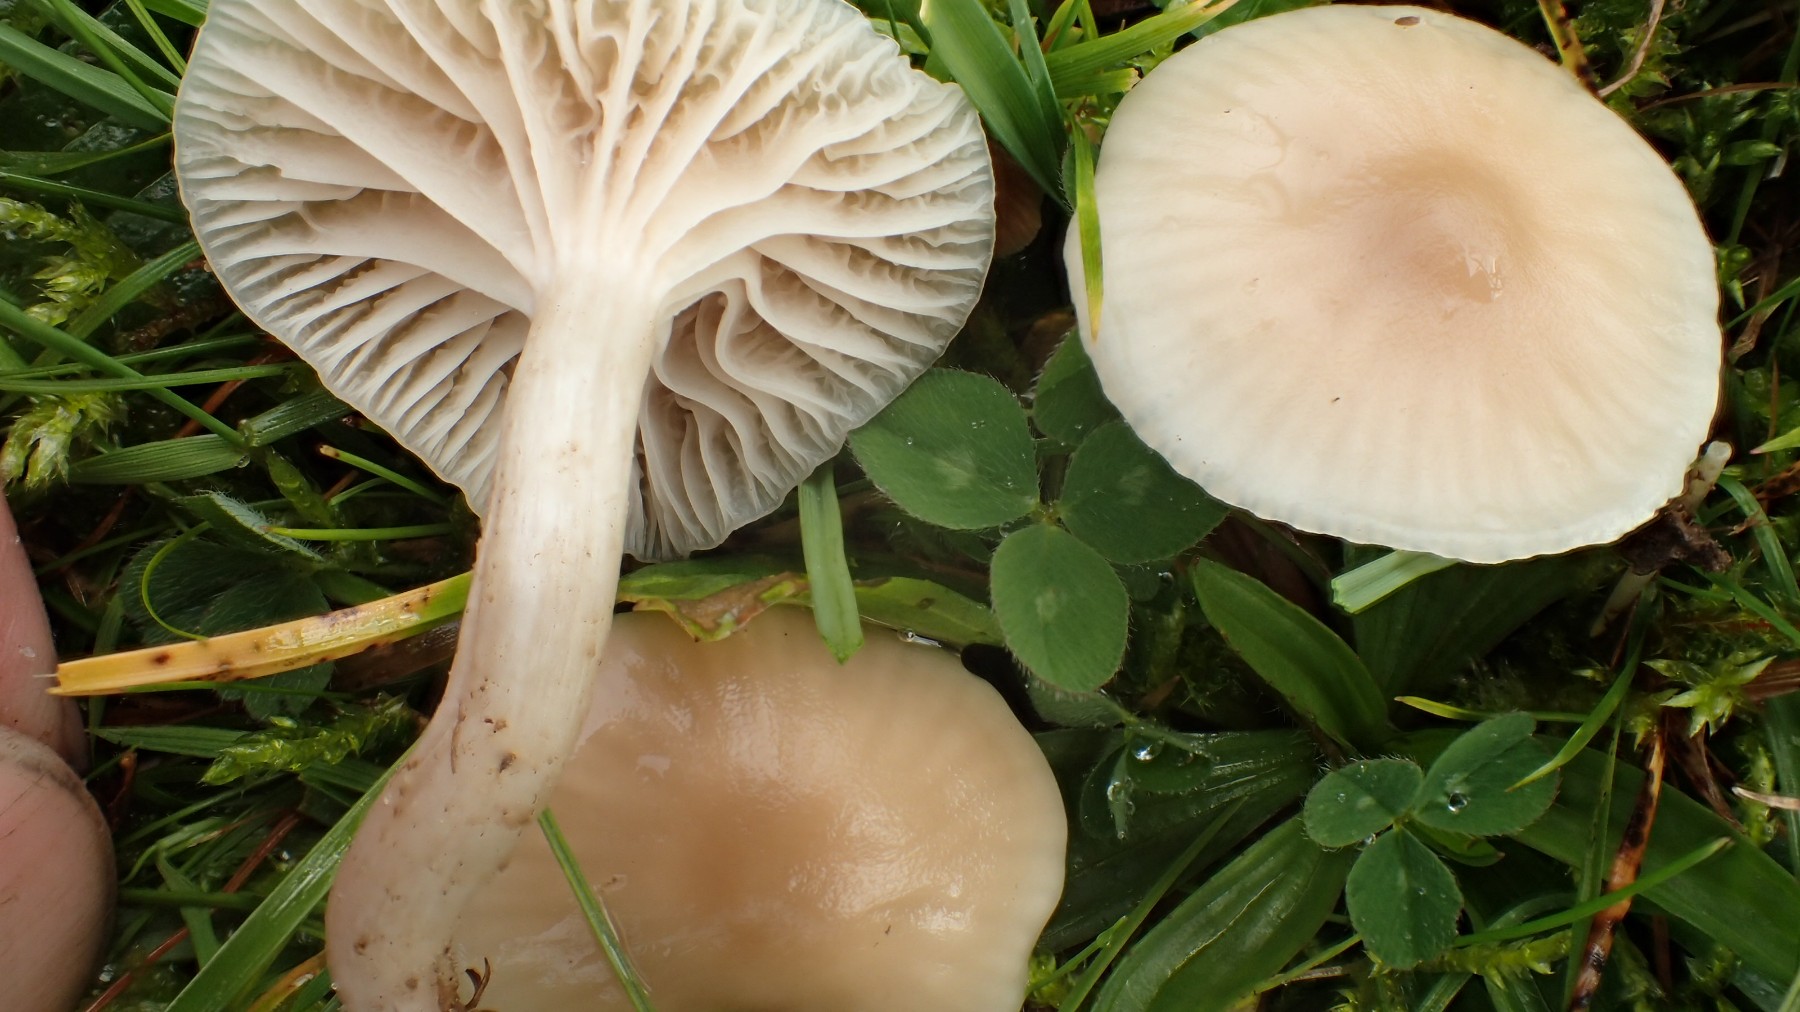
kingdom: Fungi
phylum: Basidiomycota
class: Agaricomycetes
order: Agaricales
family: Hygrophoraceae
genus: Cuphophyllus
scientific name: Cuphophyllus virgineus
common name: isabella-vokshat
